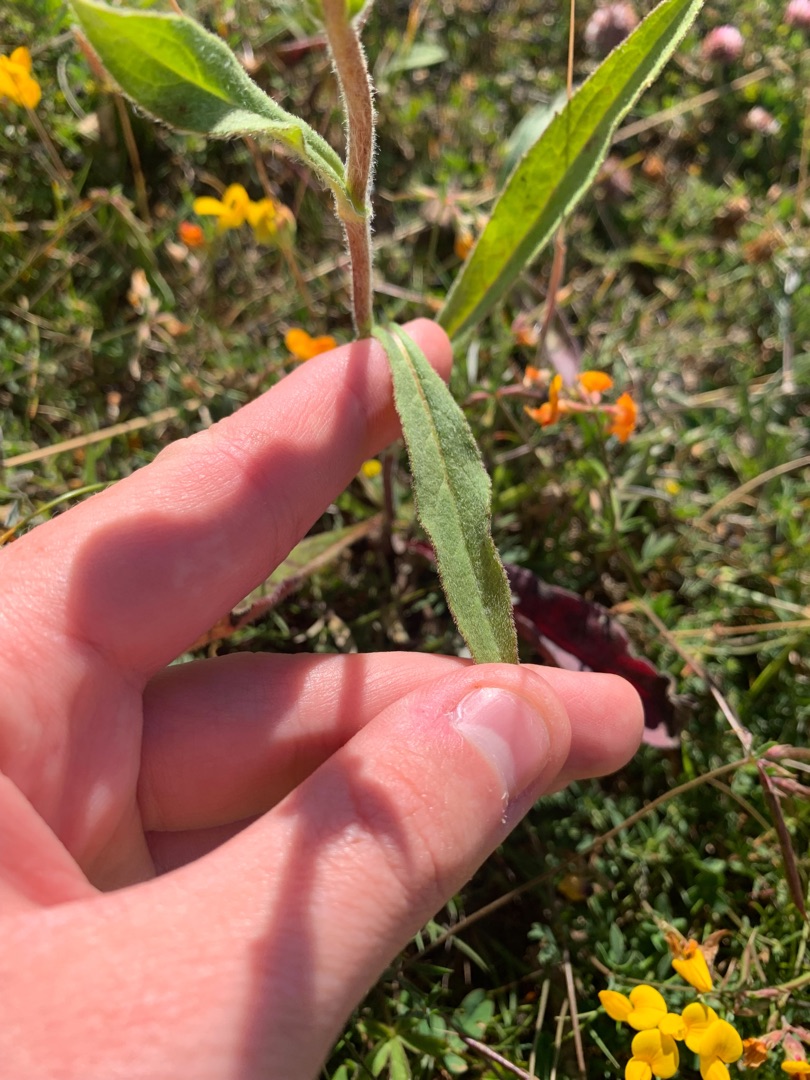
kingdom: Plantae
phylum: Tracheophyta
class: Magnoliopsida
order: Asterales
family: Asteraceae
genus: Pentanema
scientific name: Pentanema britannicum
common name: Soløje-alant
